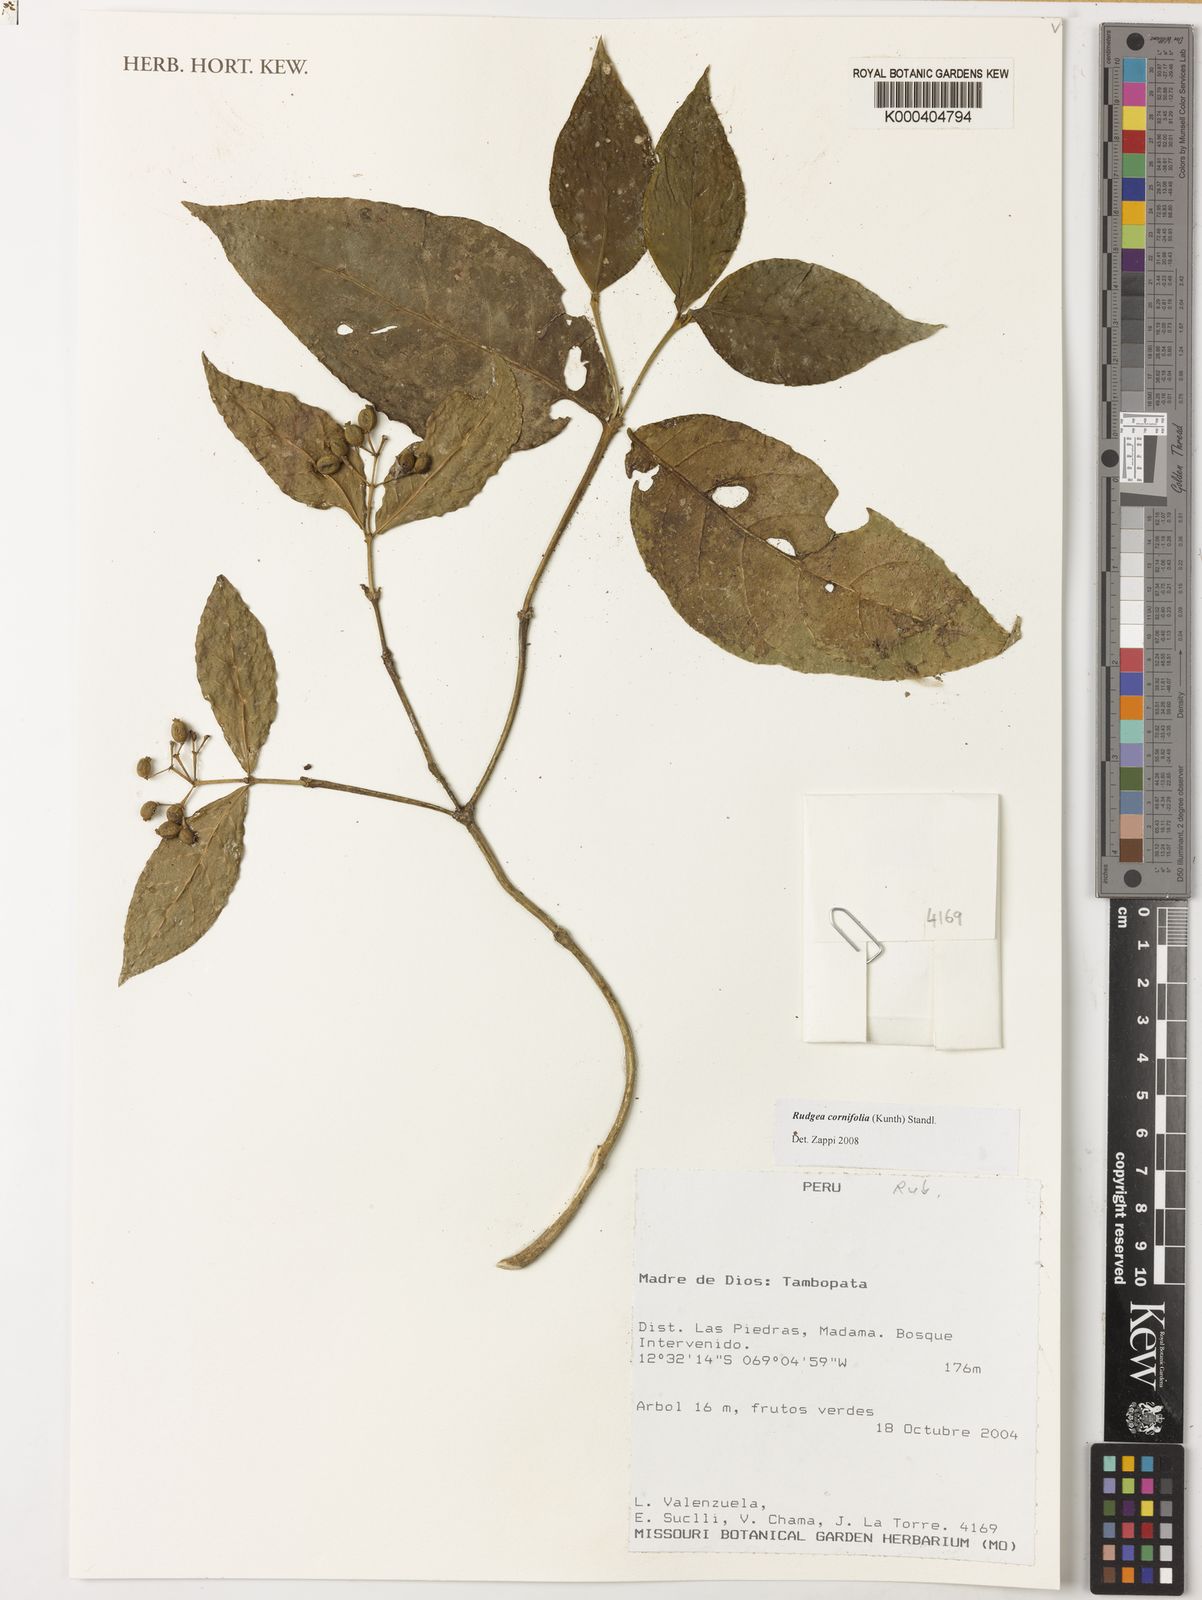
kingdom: Plantae
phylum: Tracheophyta
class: Magnoliopsida
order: Gentianales
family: Rubiaceae
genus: Rudgea
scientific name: Rudgea cornifolia
